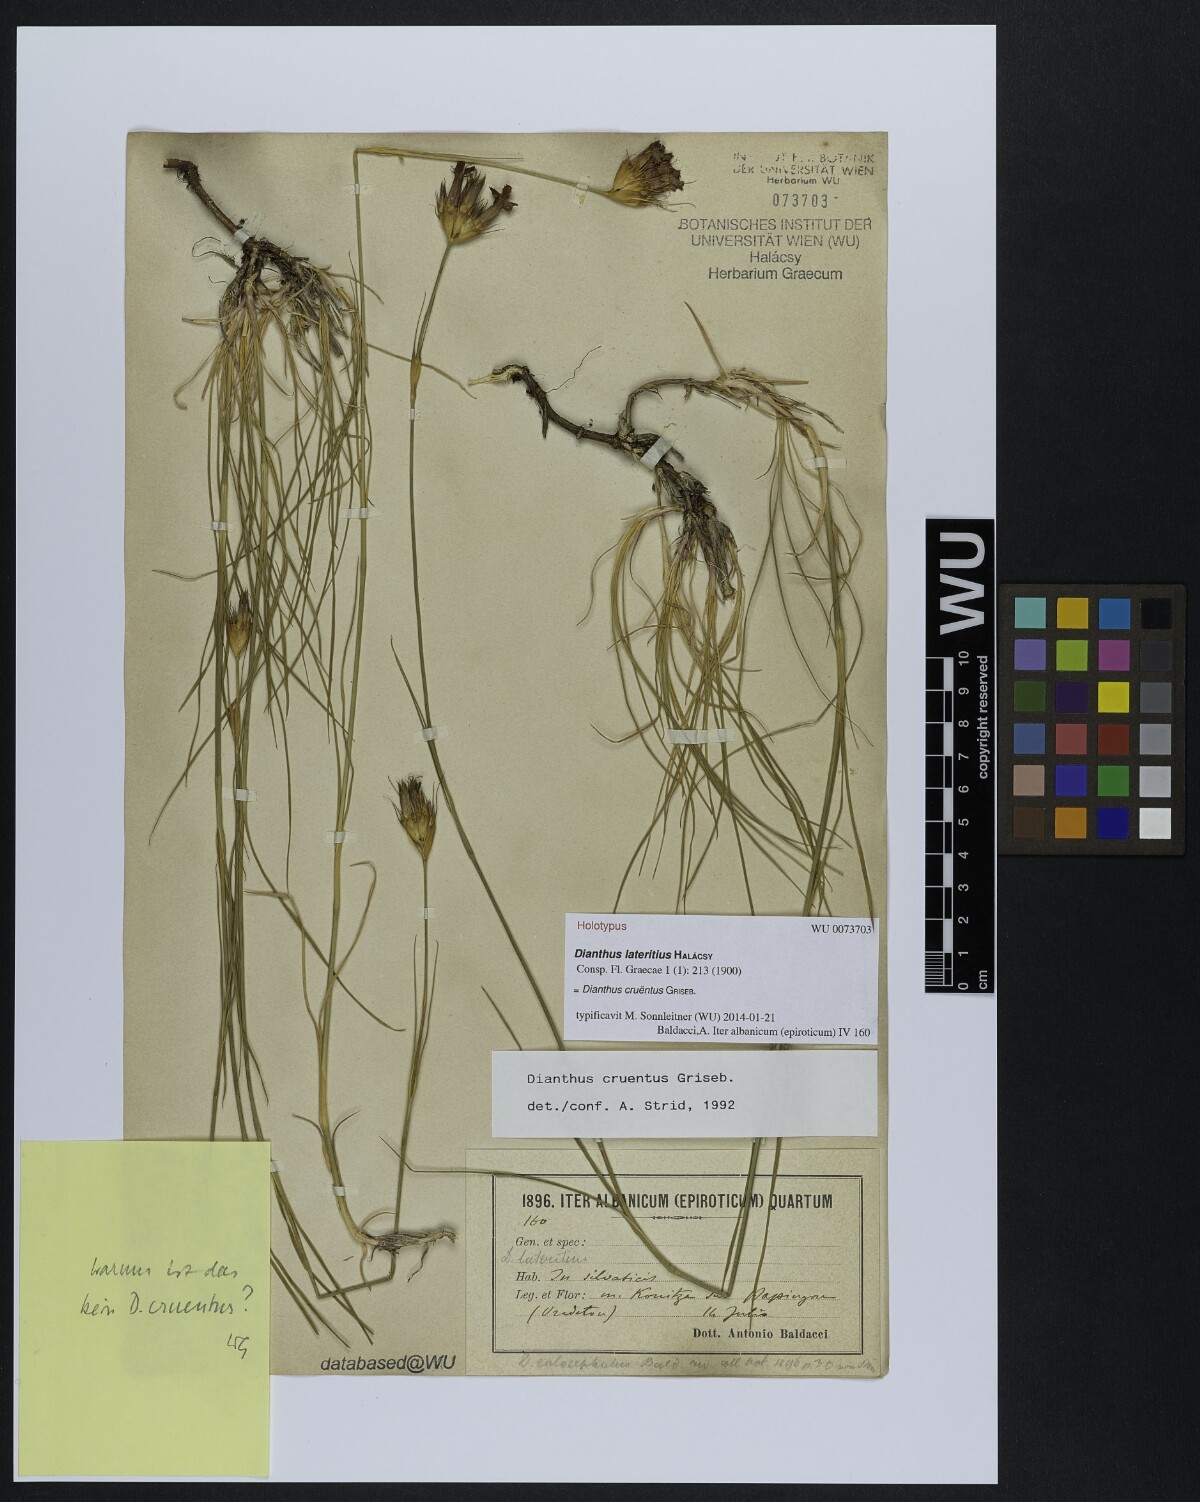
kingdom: Plantae
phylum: Tracheophyta
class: Magnoliopsida
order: Caryophyllales
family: Caryophyllaceae
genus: Dianthus
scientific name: Dianthus cruentus
